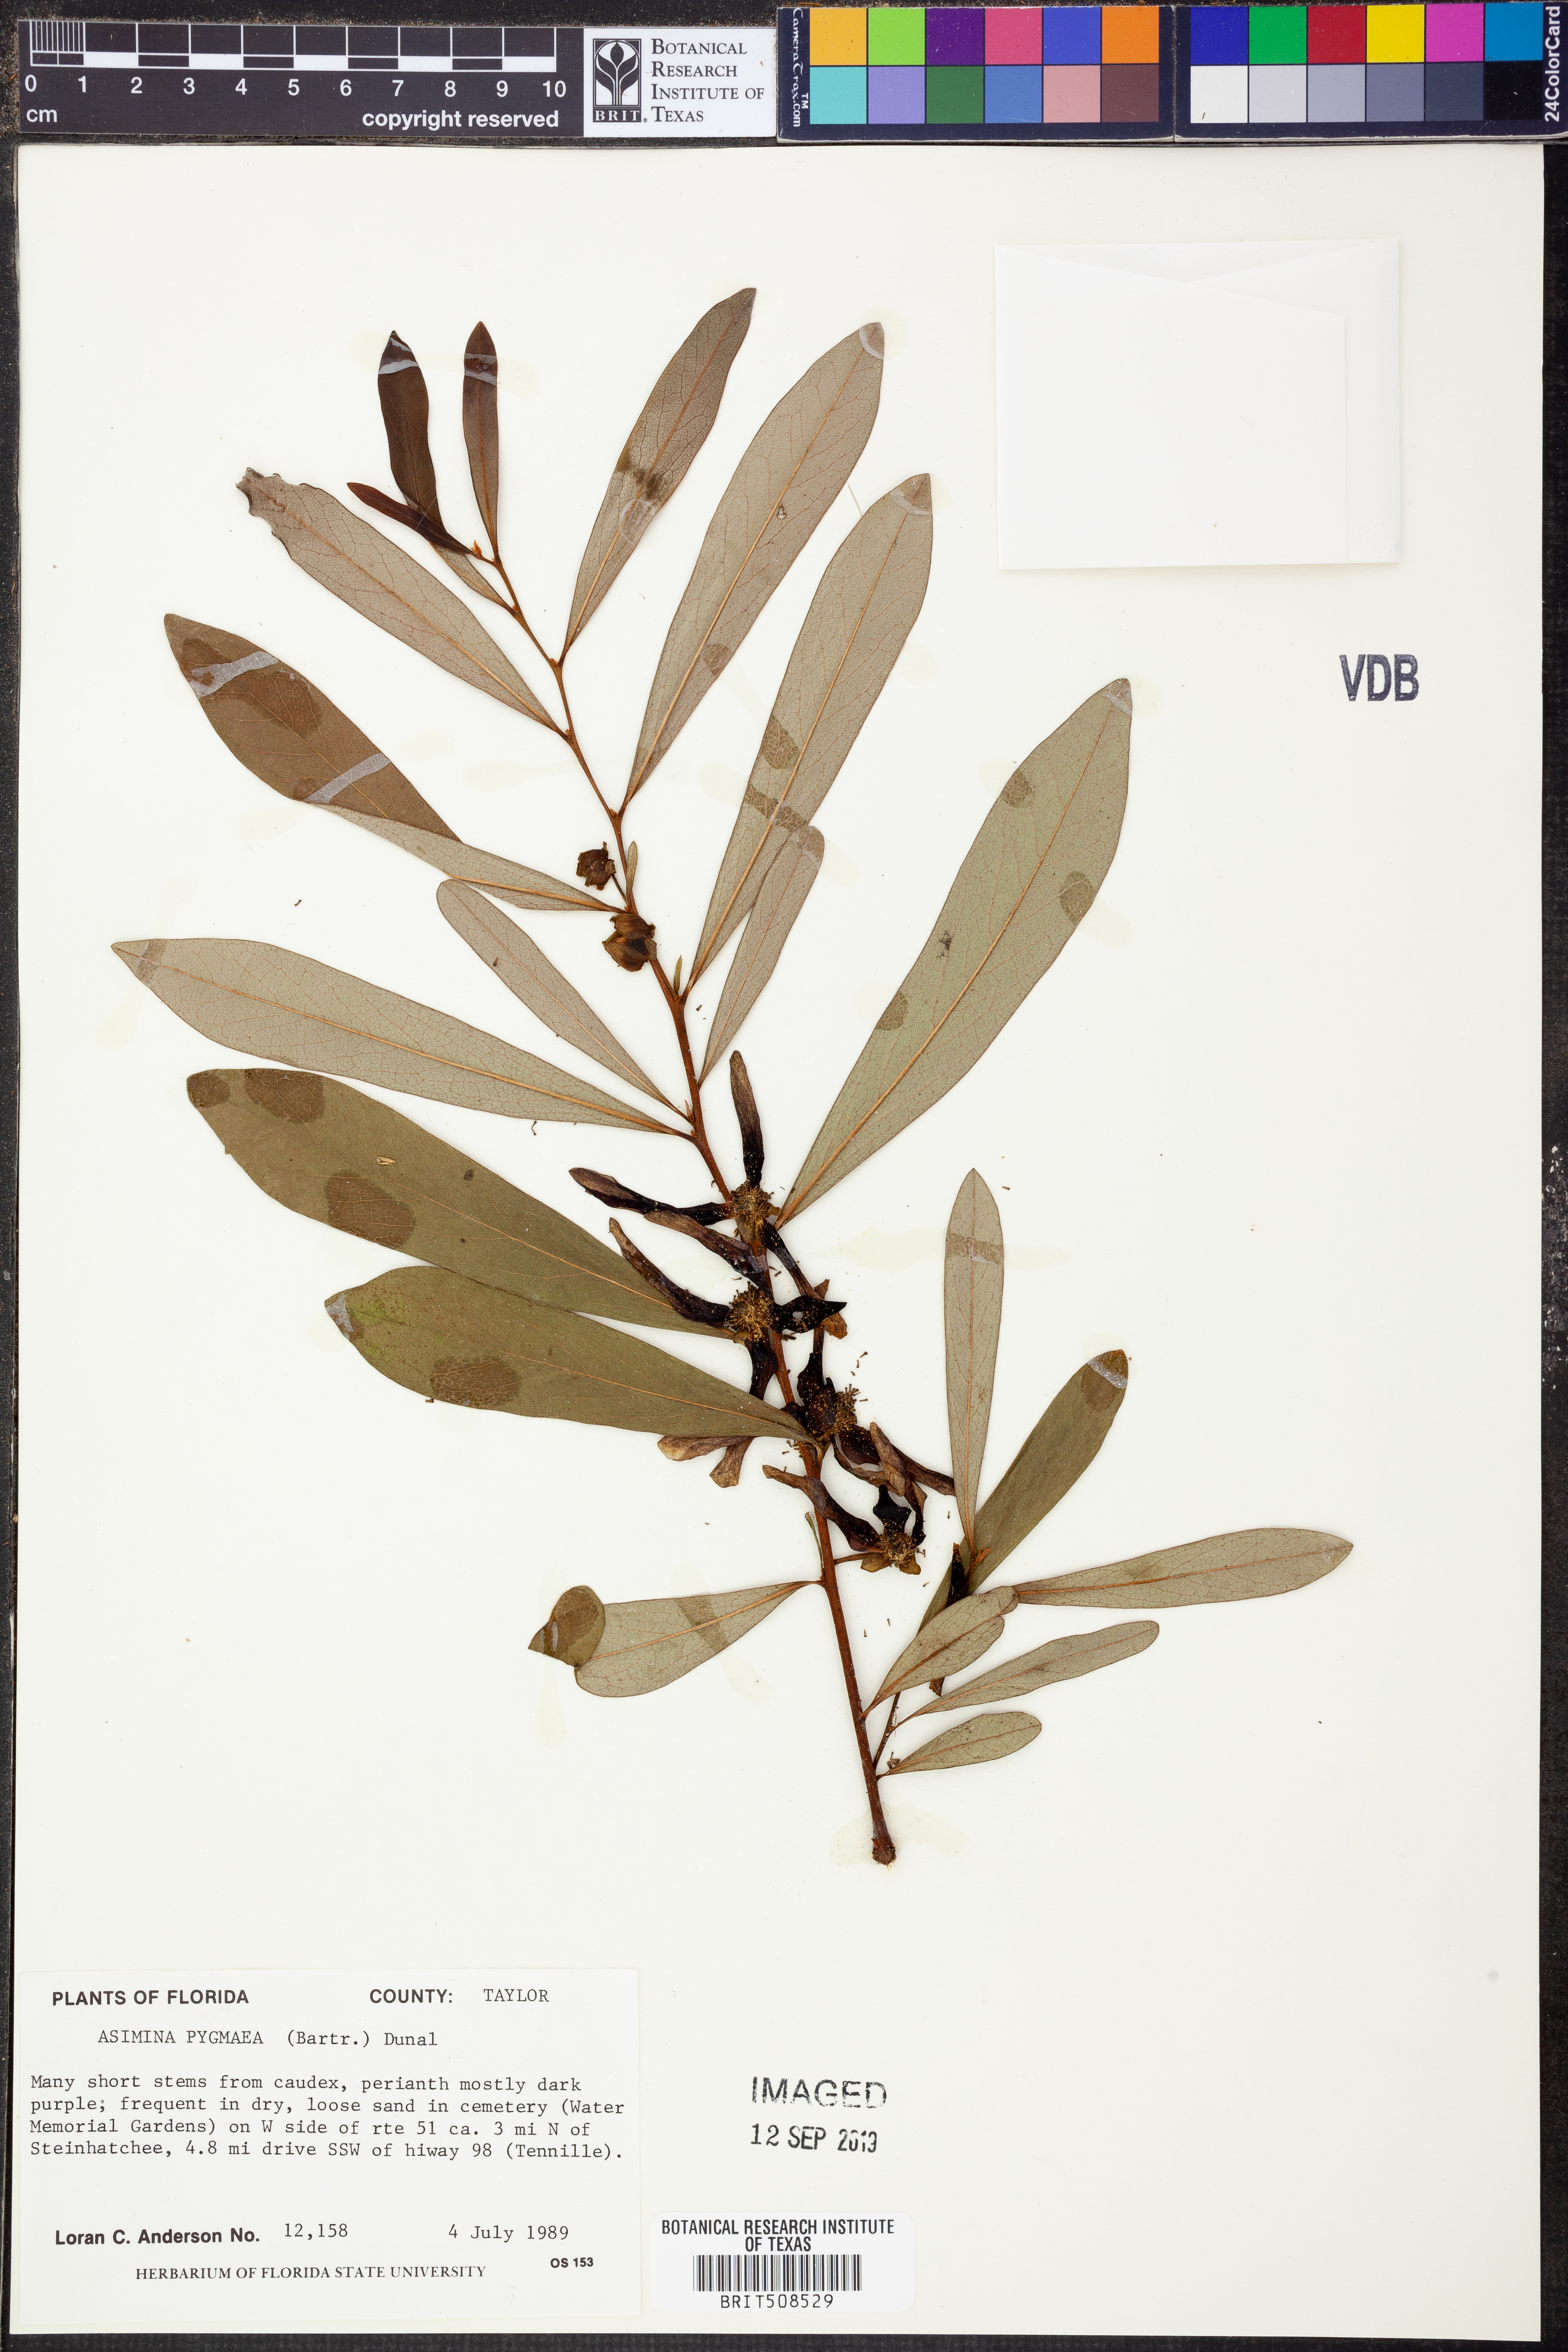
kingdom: Plantae
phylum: Tracheophyta
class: Magnoliopsida
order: Magnoliales
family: Annonaceae
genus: Asimina
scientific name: Asimina pygmaea
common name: Dwarf pawpaw
